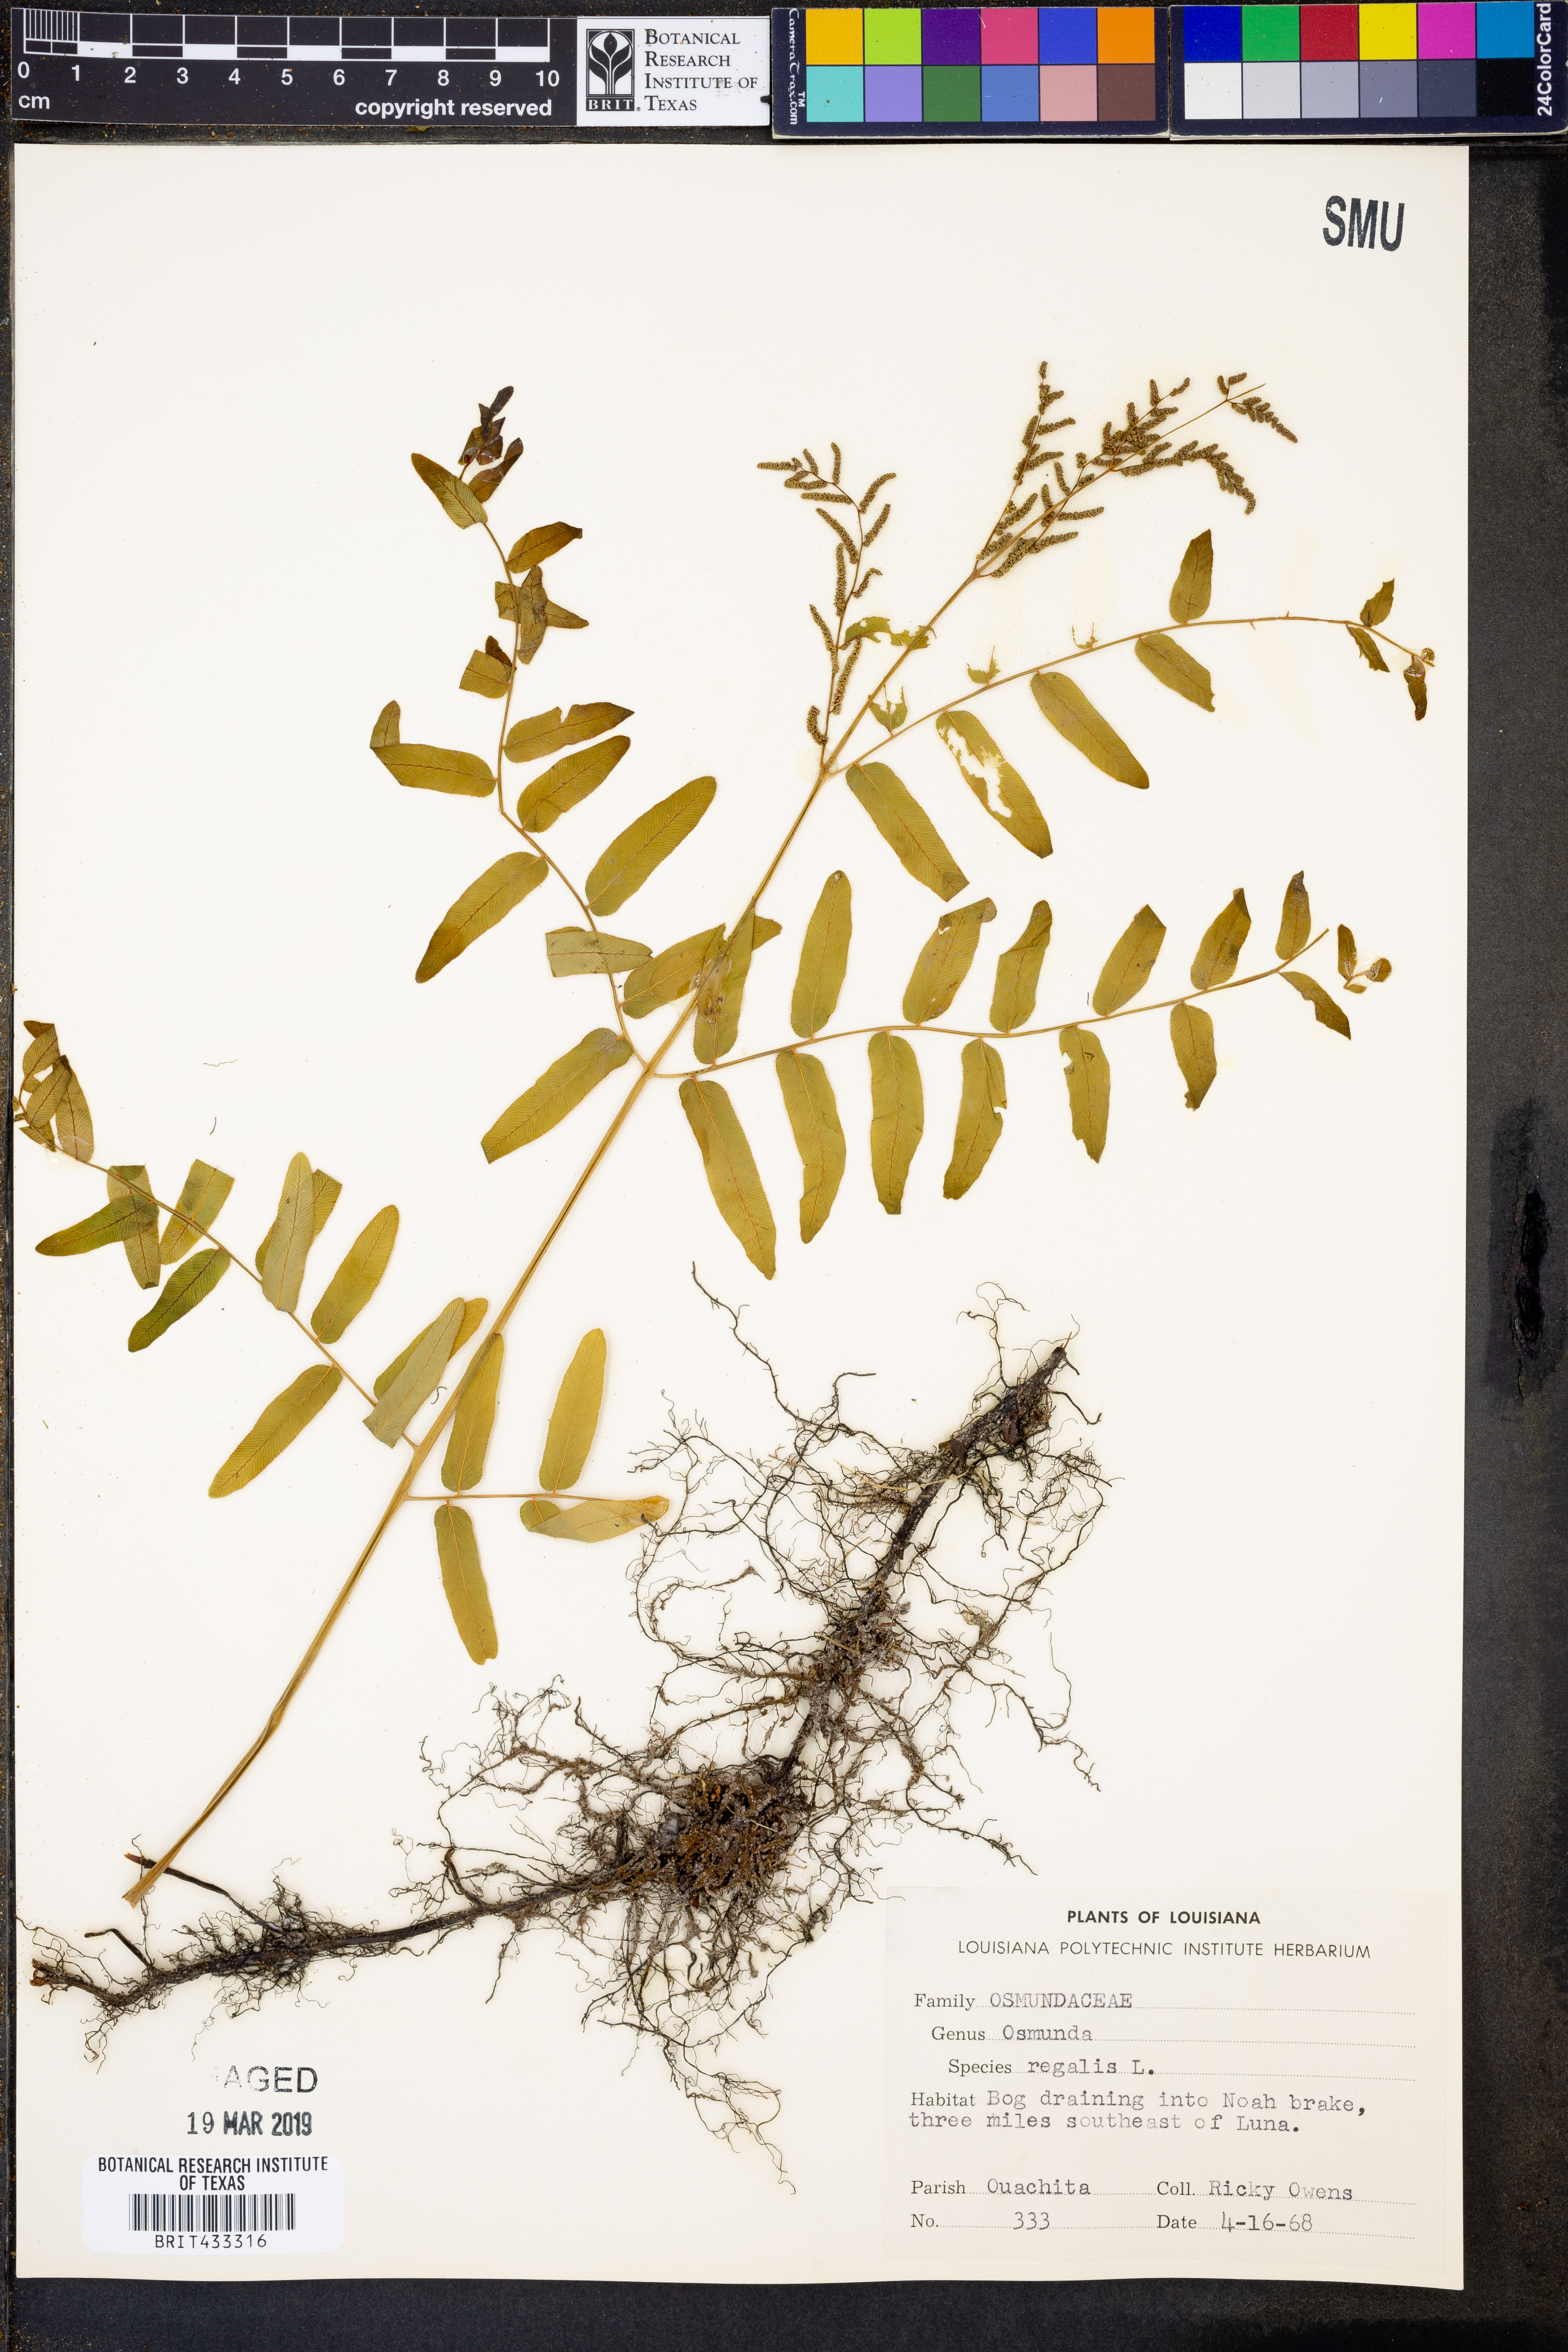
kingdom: Plantae
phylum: Tracheophyta
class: Polypodiopsida
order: Osmundales
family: Osmundaceae
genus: Osmunda
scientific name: Osmunda regalis
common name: Royal fern
